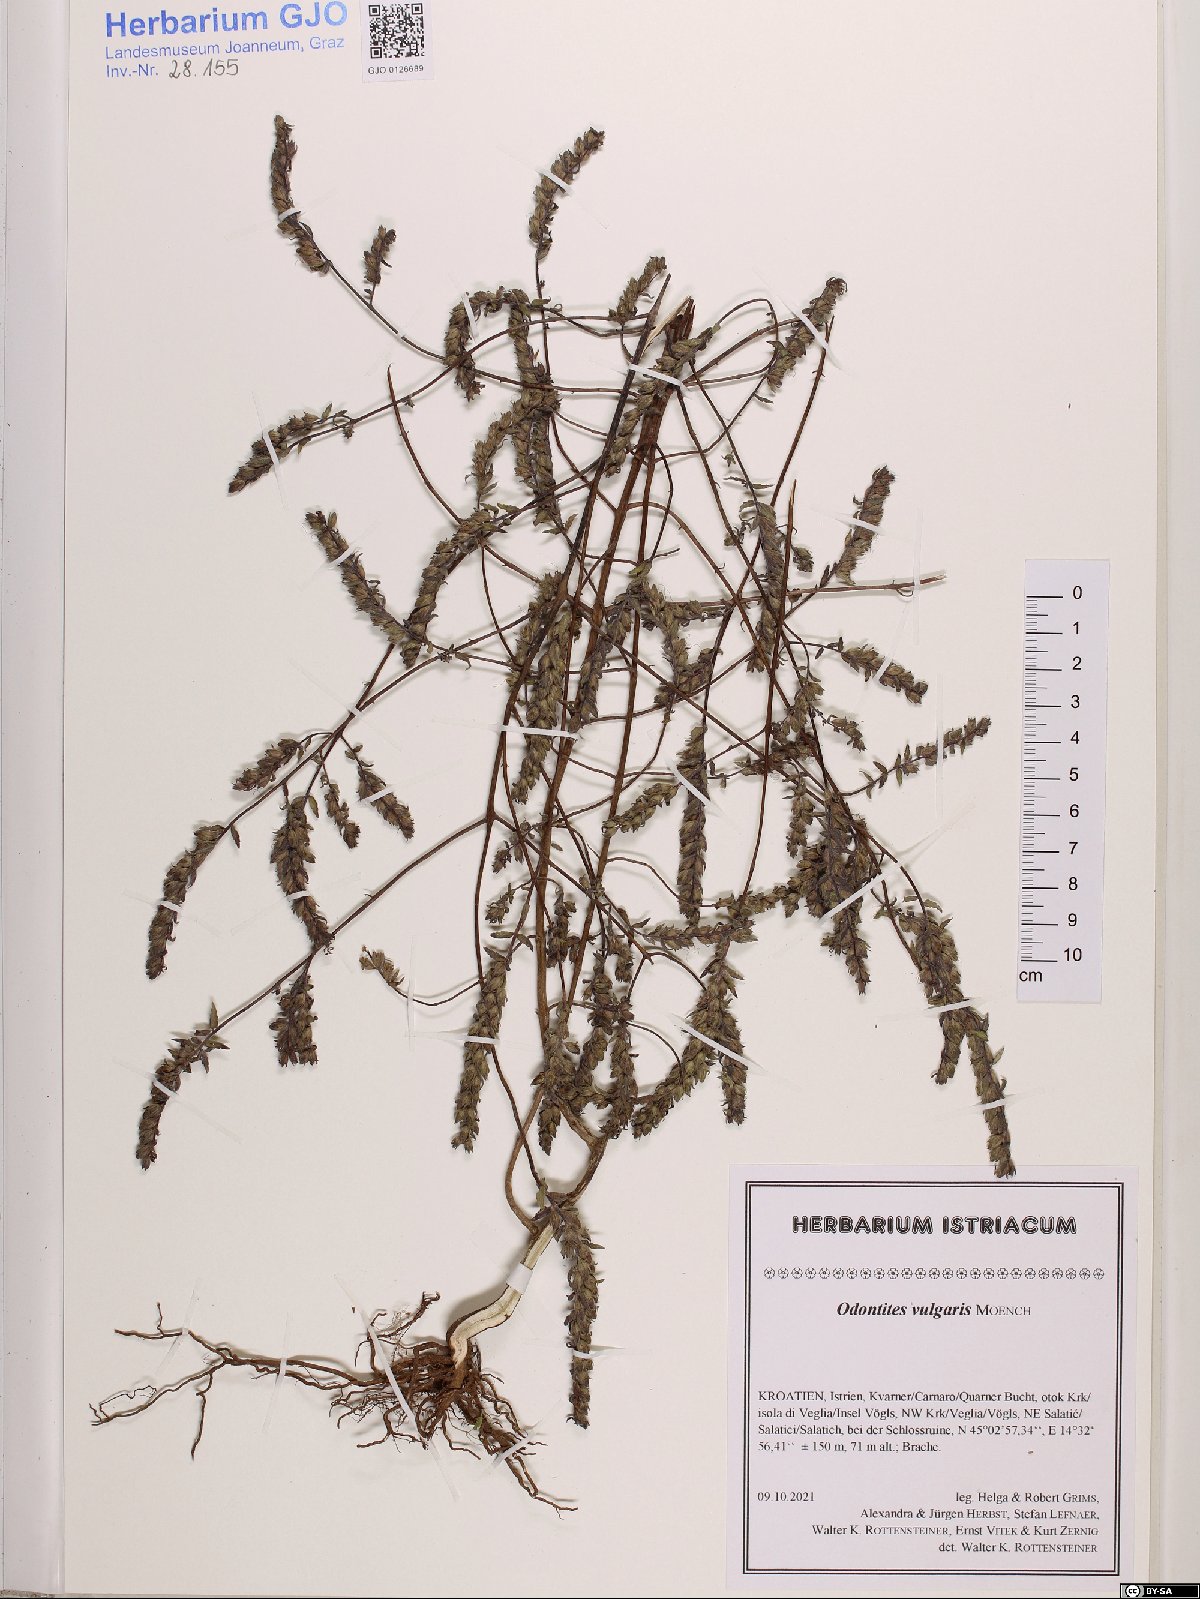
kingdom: Plantae
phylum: Tracheophyta
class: Magnoliopsida
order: Lamiales
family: Orobanchaceae
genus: Odontites
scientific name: Odontites vulgaris
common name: Broomrape
